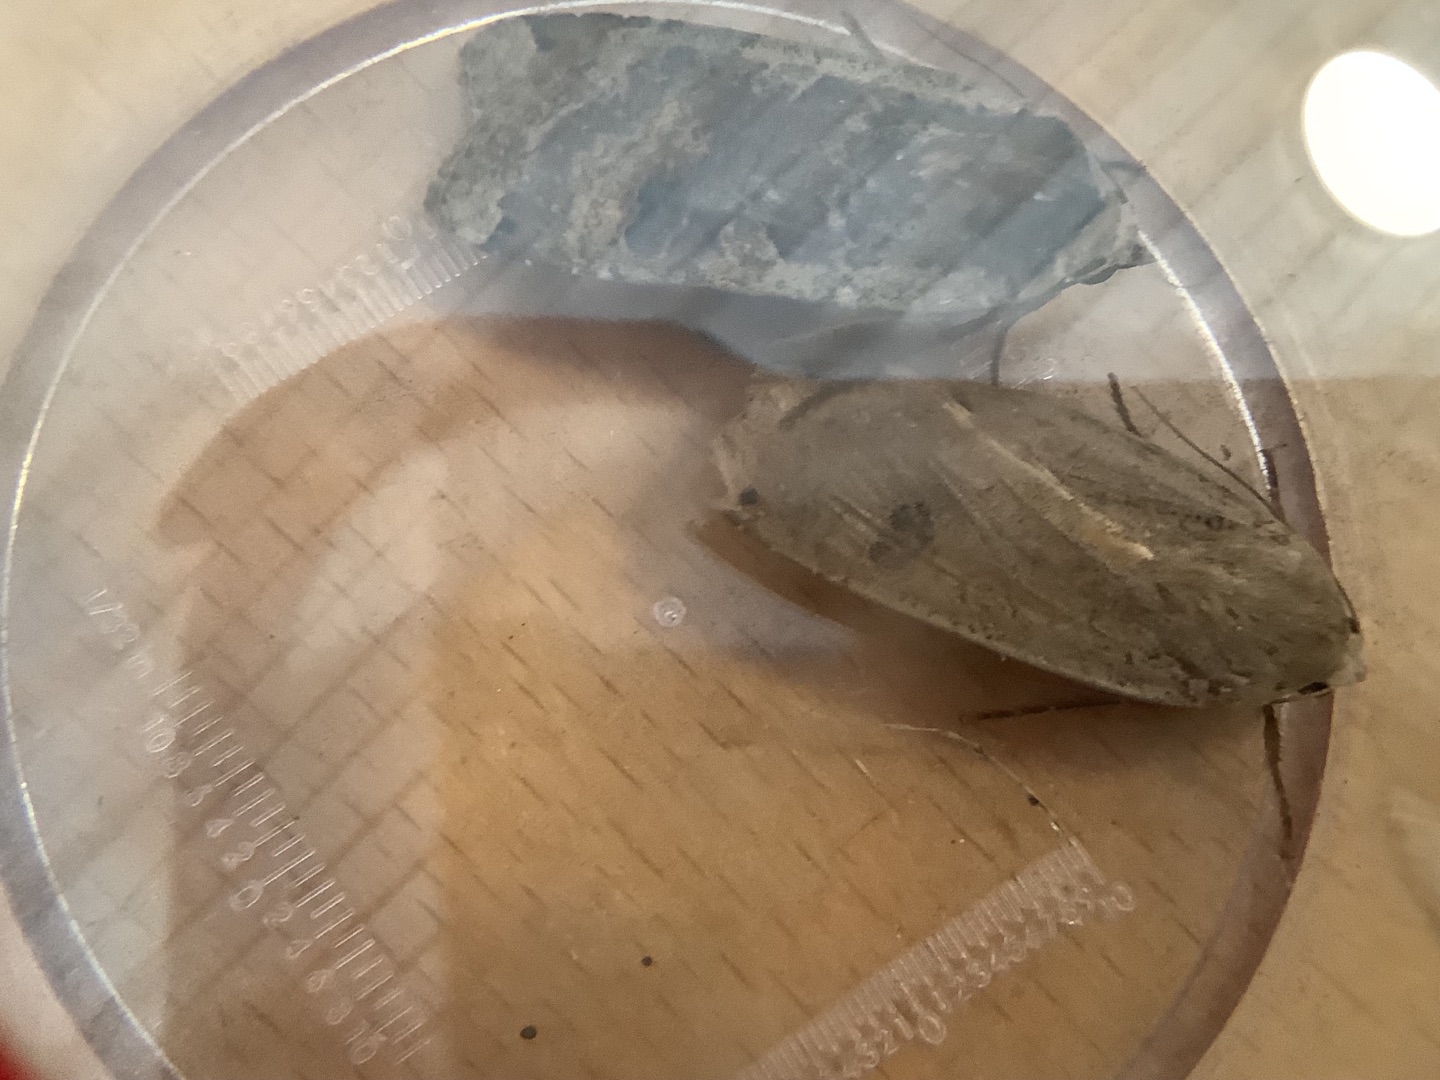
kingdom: Animalia
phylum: Arthropoda
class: Insecta
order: Lepidoptera
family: Noctuidae
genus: Noctua
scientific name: Noctua pronuba
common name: Stor smutugle
